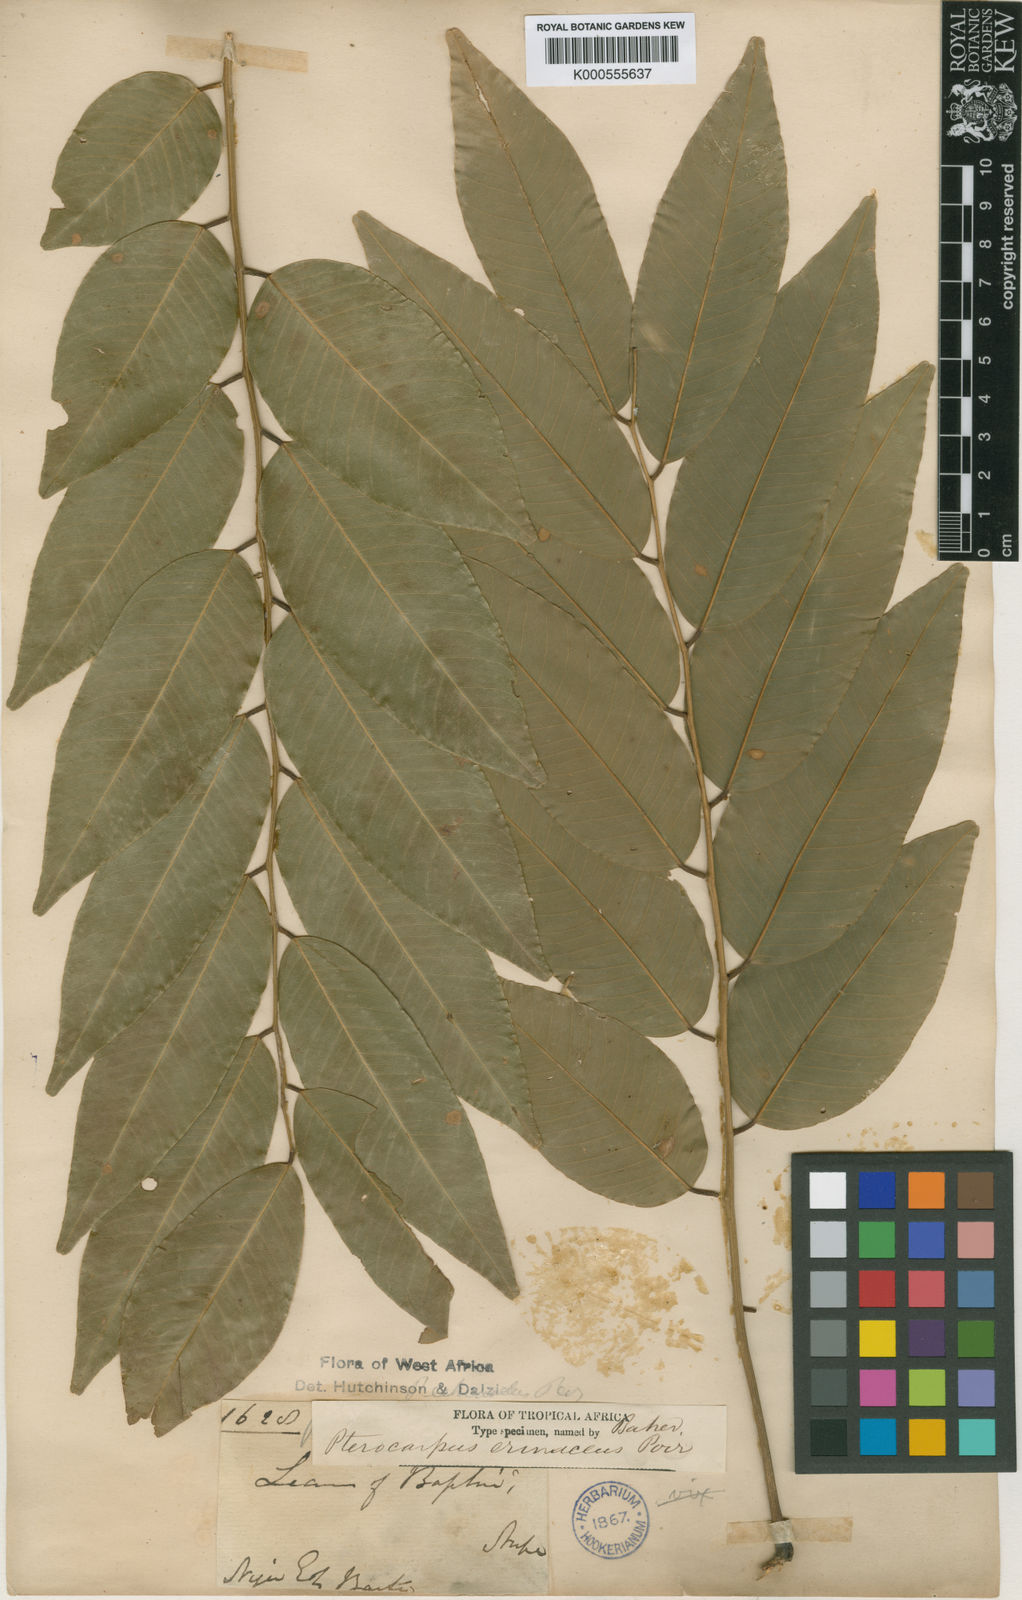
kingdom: Plantae
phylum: Tracheophyta
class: Magnoliopsida
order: Fabales
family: Fabaceae
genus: Pterocarpus
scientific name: Pterocarpus erinaceus
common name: African rosewood
